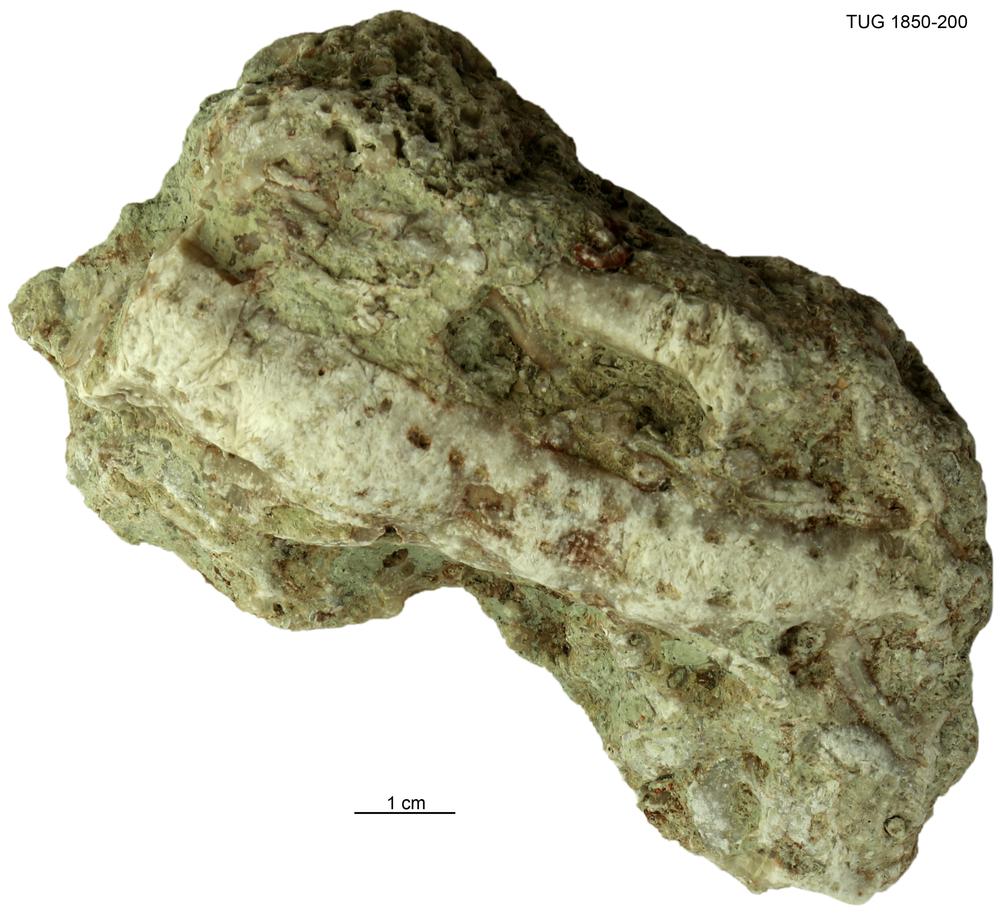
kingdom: Animalia
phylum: Echinodermata
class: Crinoidea
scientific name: Crinoidea
